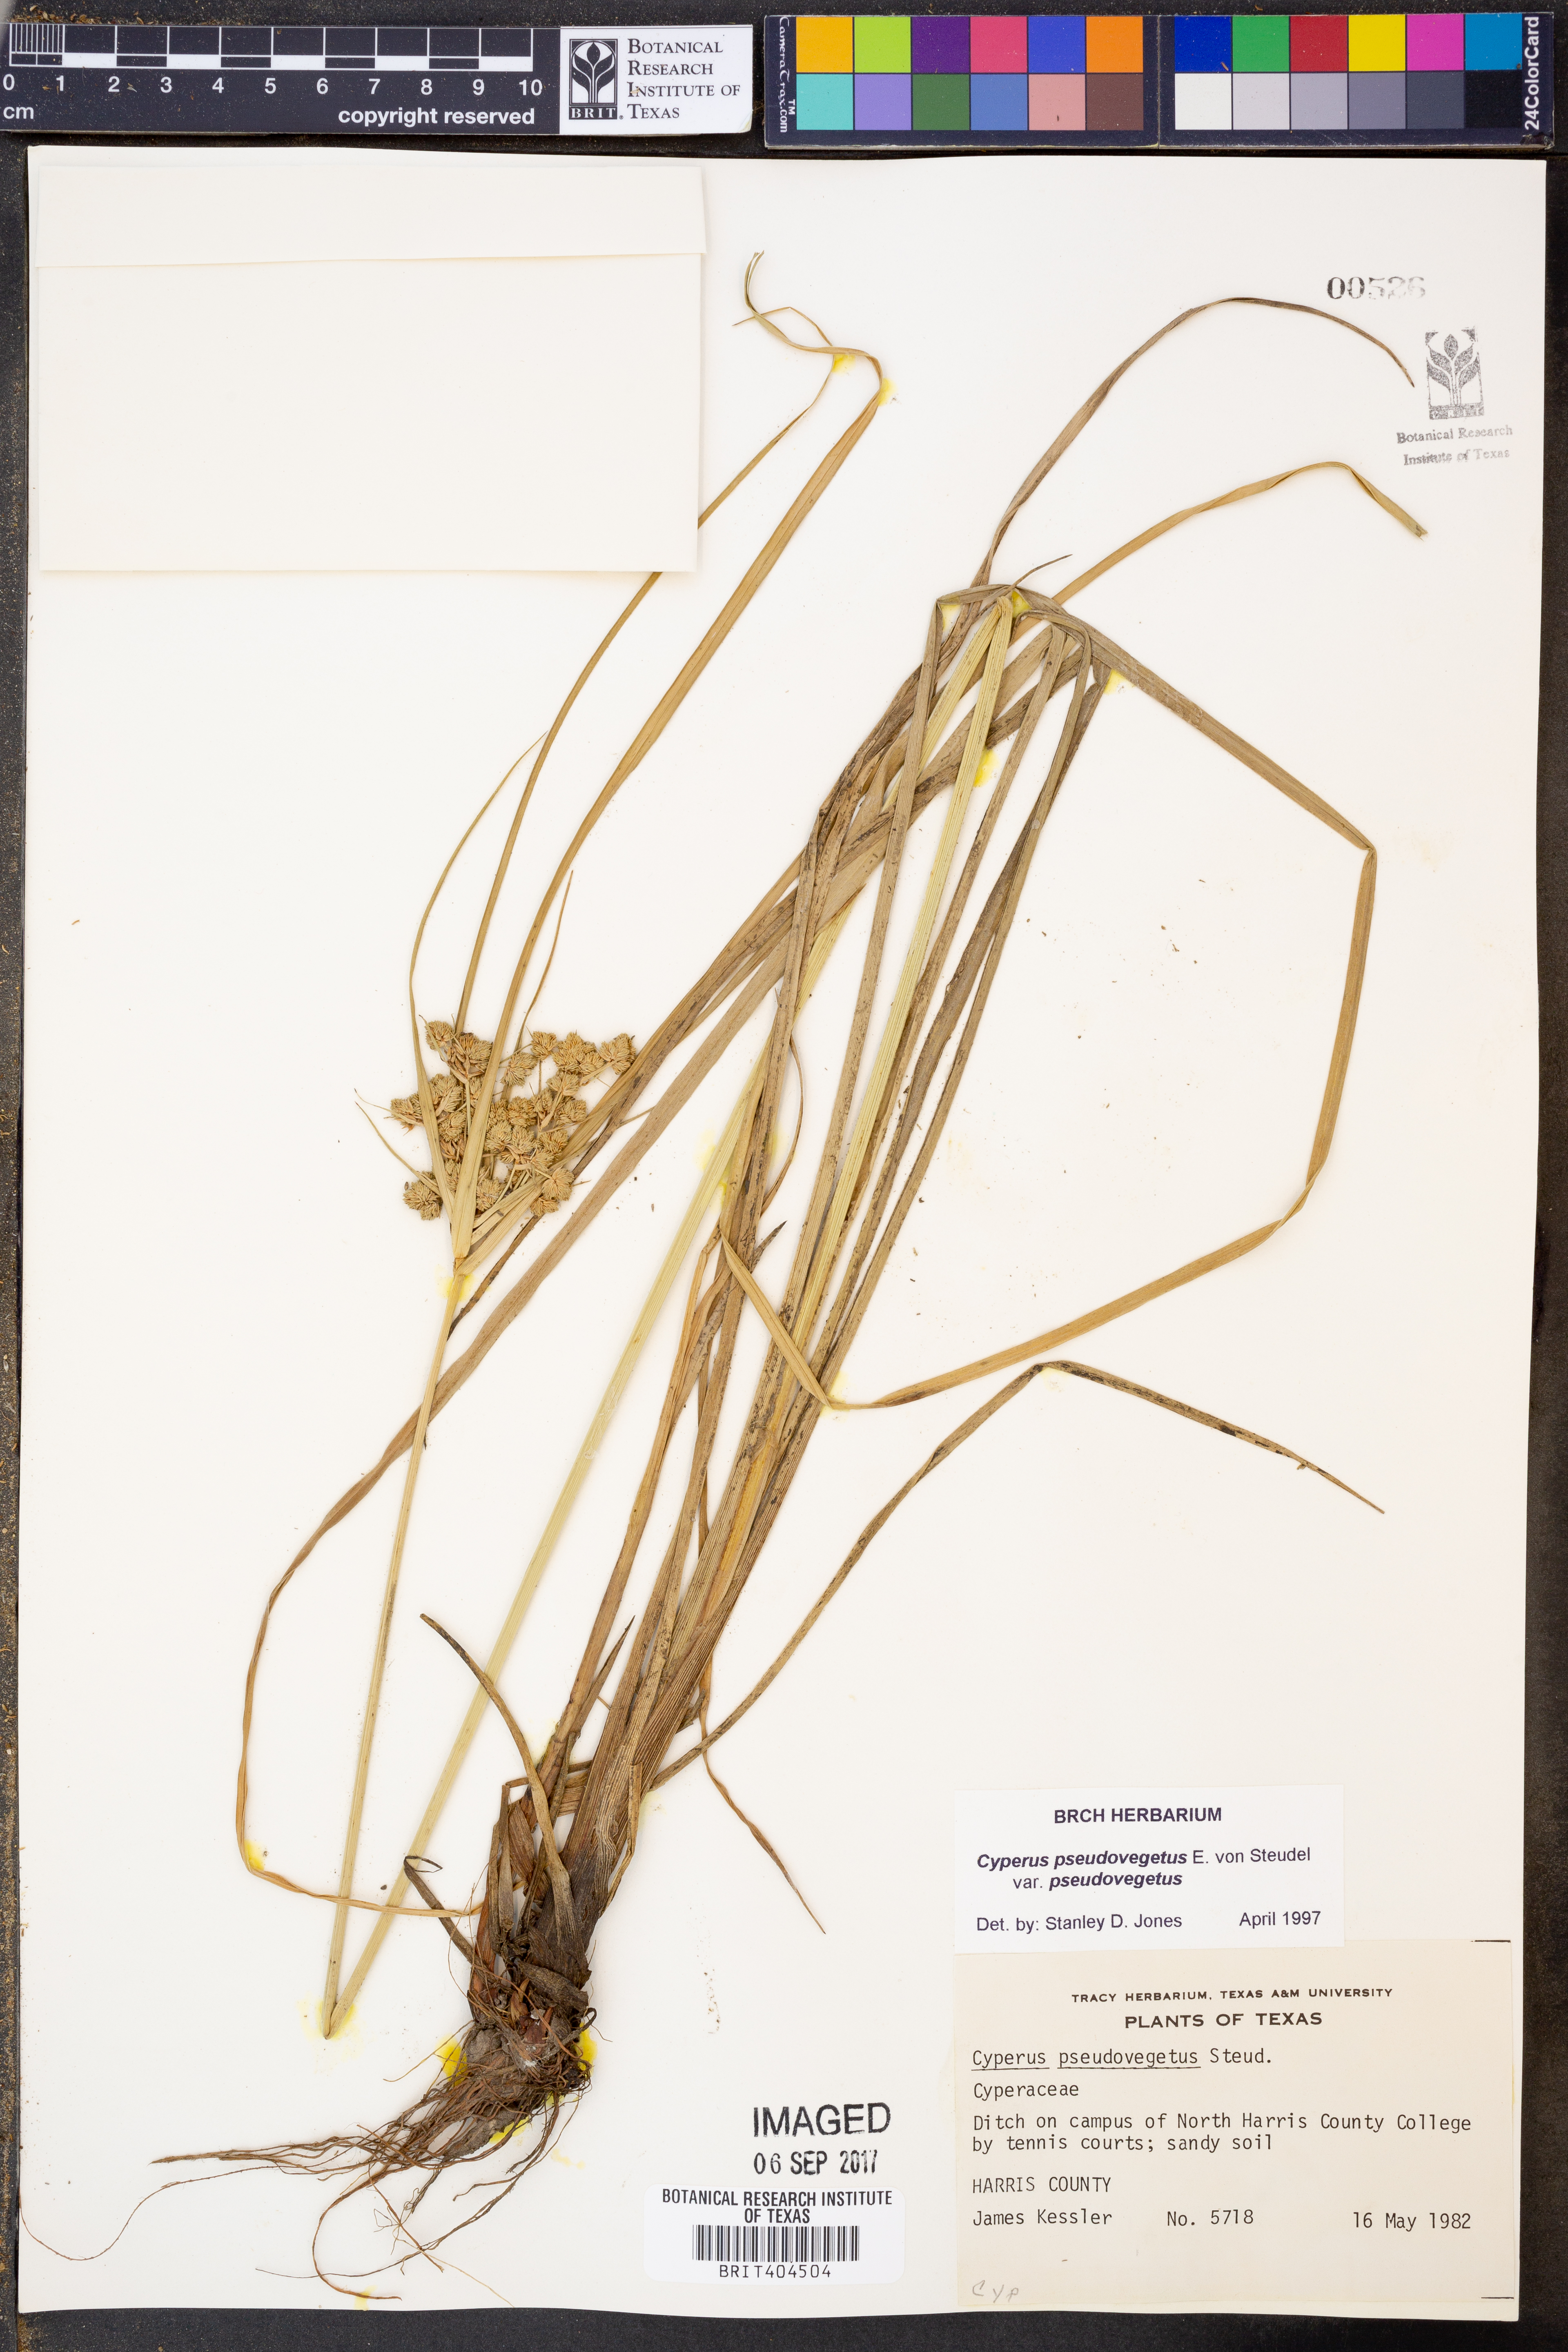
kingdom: Plantae
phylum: Tracheophyta
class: Liliopsida
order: Poales
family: Cyperaceae
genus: Cyperus
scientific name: Cyperus pseudovegetus
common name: Marsh flat sedge
